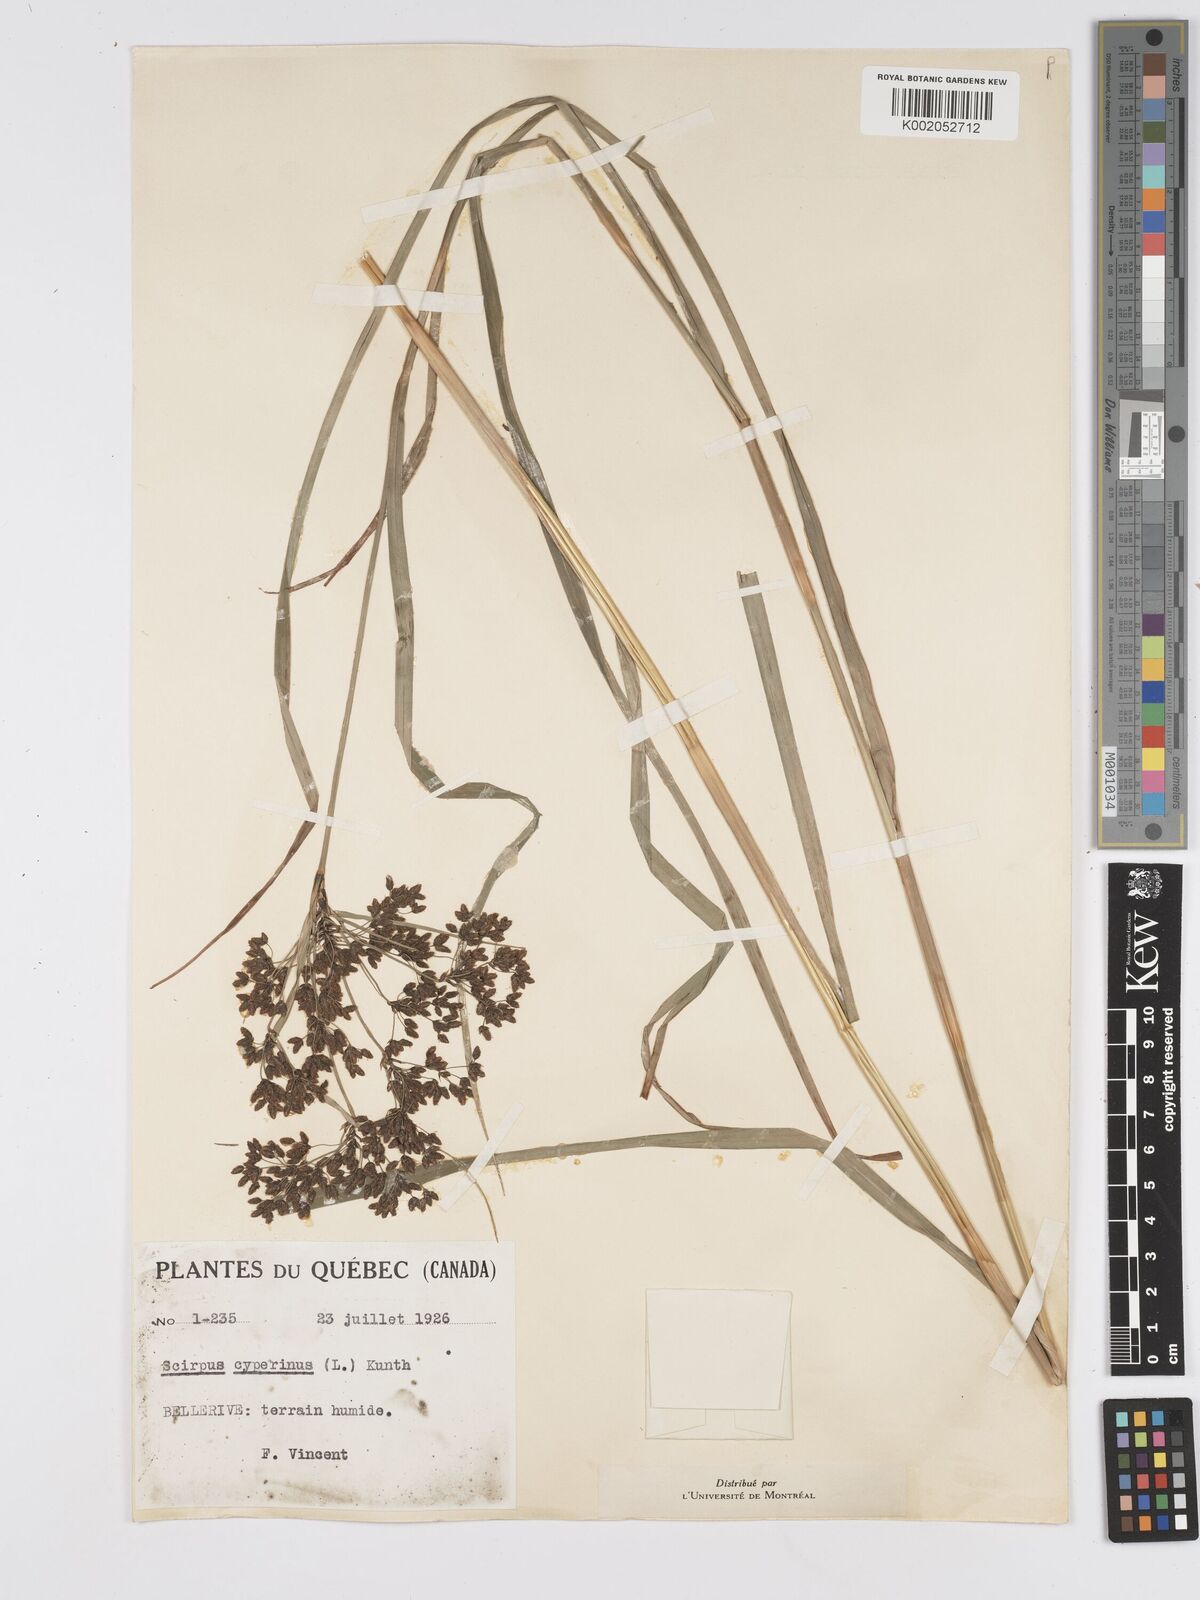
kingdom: Plantae
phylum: Tracheophyta
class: Liliopsida
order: Poales
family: Cyperaceae
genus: Scirpus
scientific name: Scirpus cyperinus
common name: Black-sheathed bulrush
